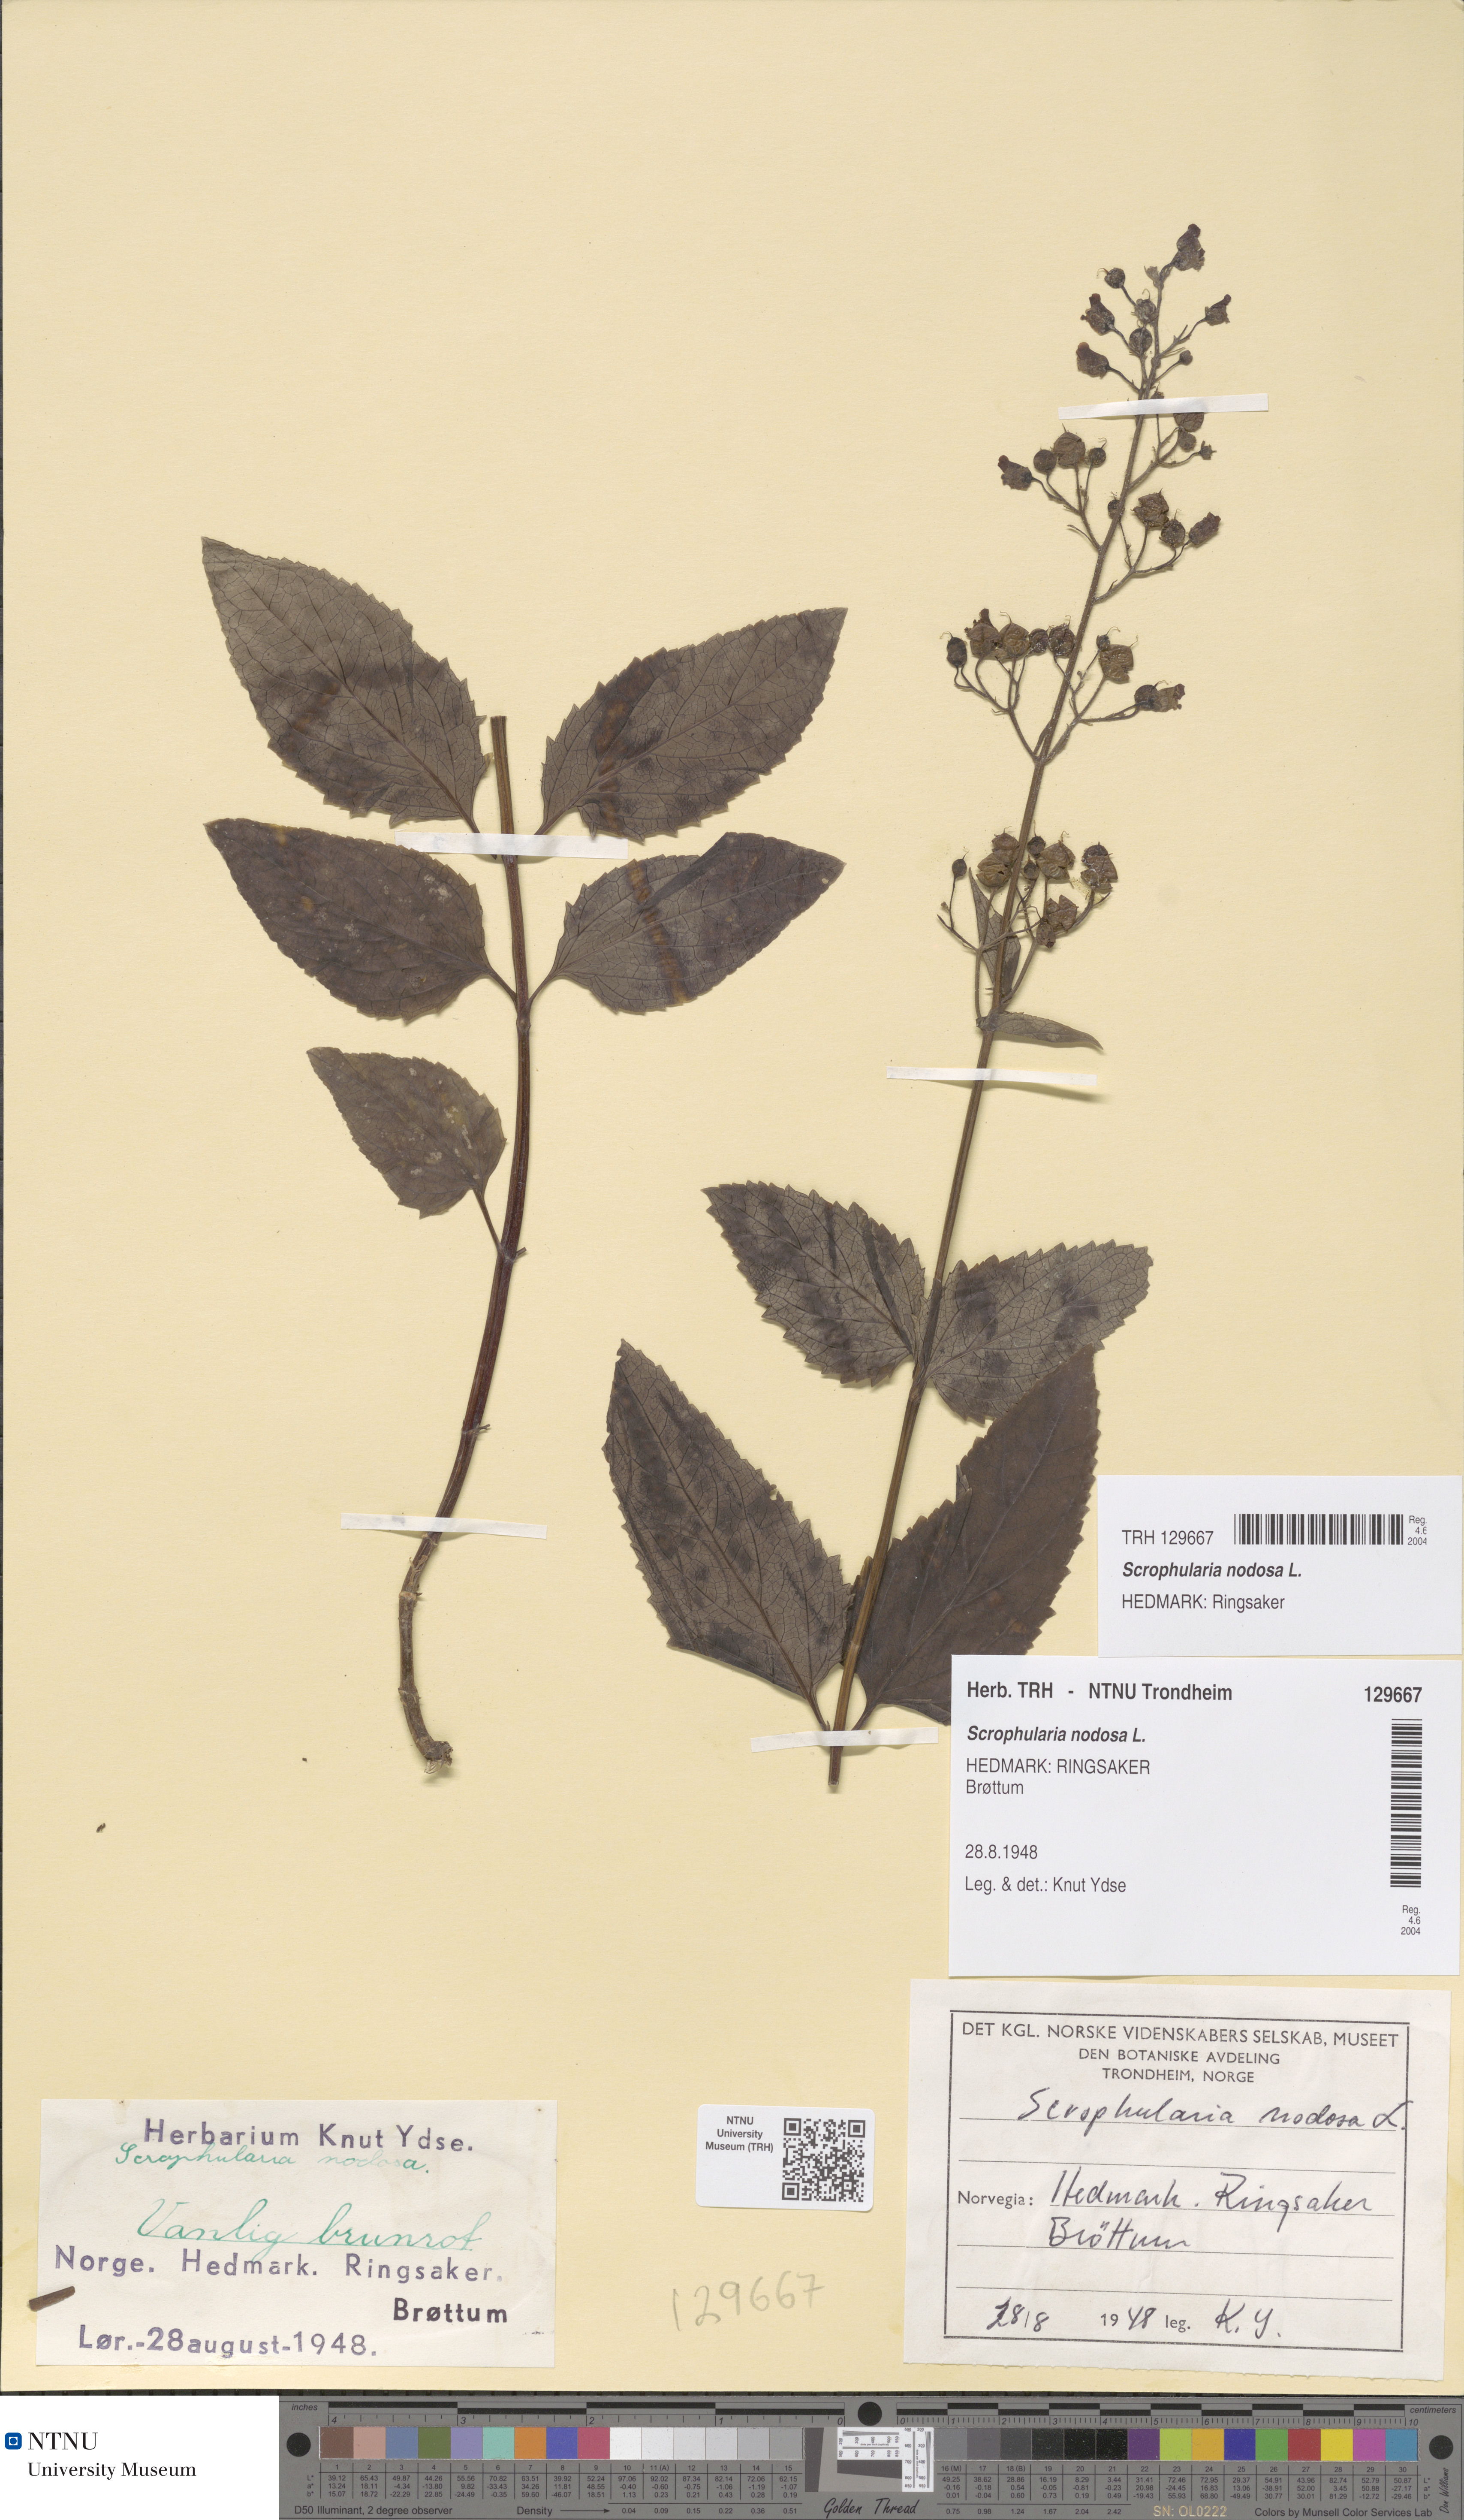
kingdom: Plantae
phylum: Tracheophyta
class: Magnoliopsida
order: Lamiales
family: Scrophulariaceae
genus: Scrophularia
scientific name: Scrophularia nodosa
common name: Common figwort
